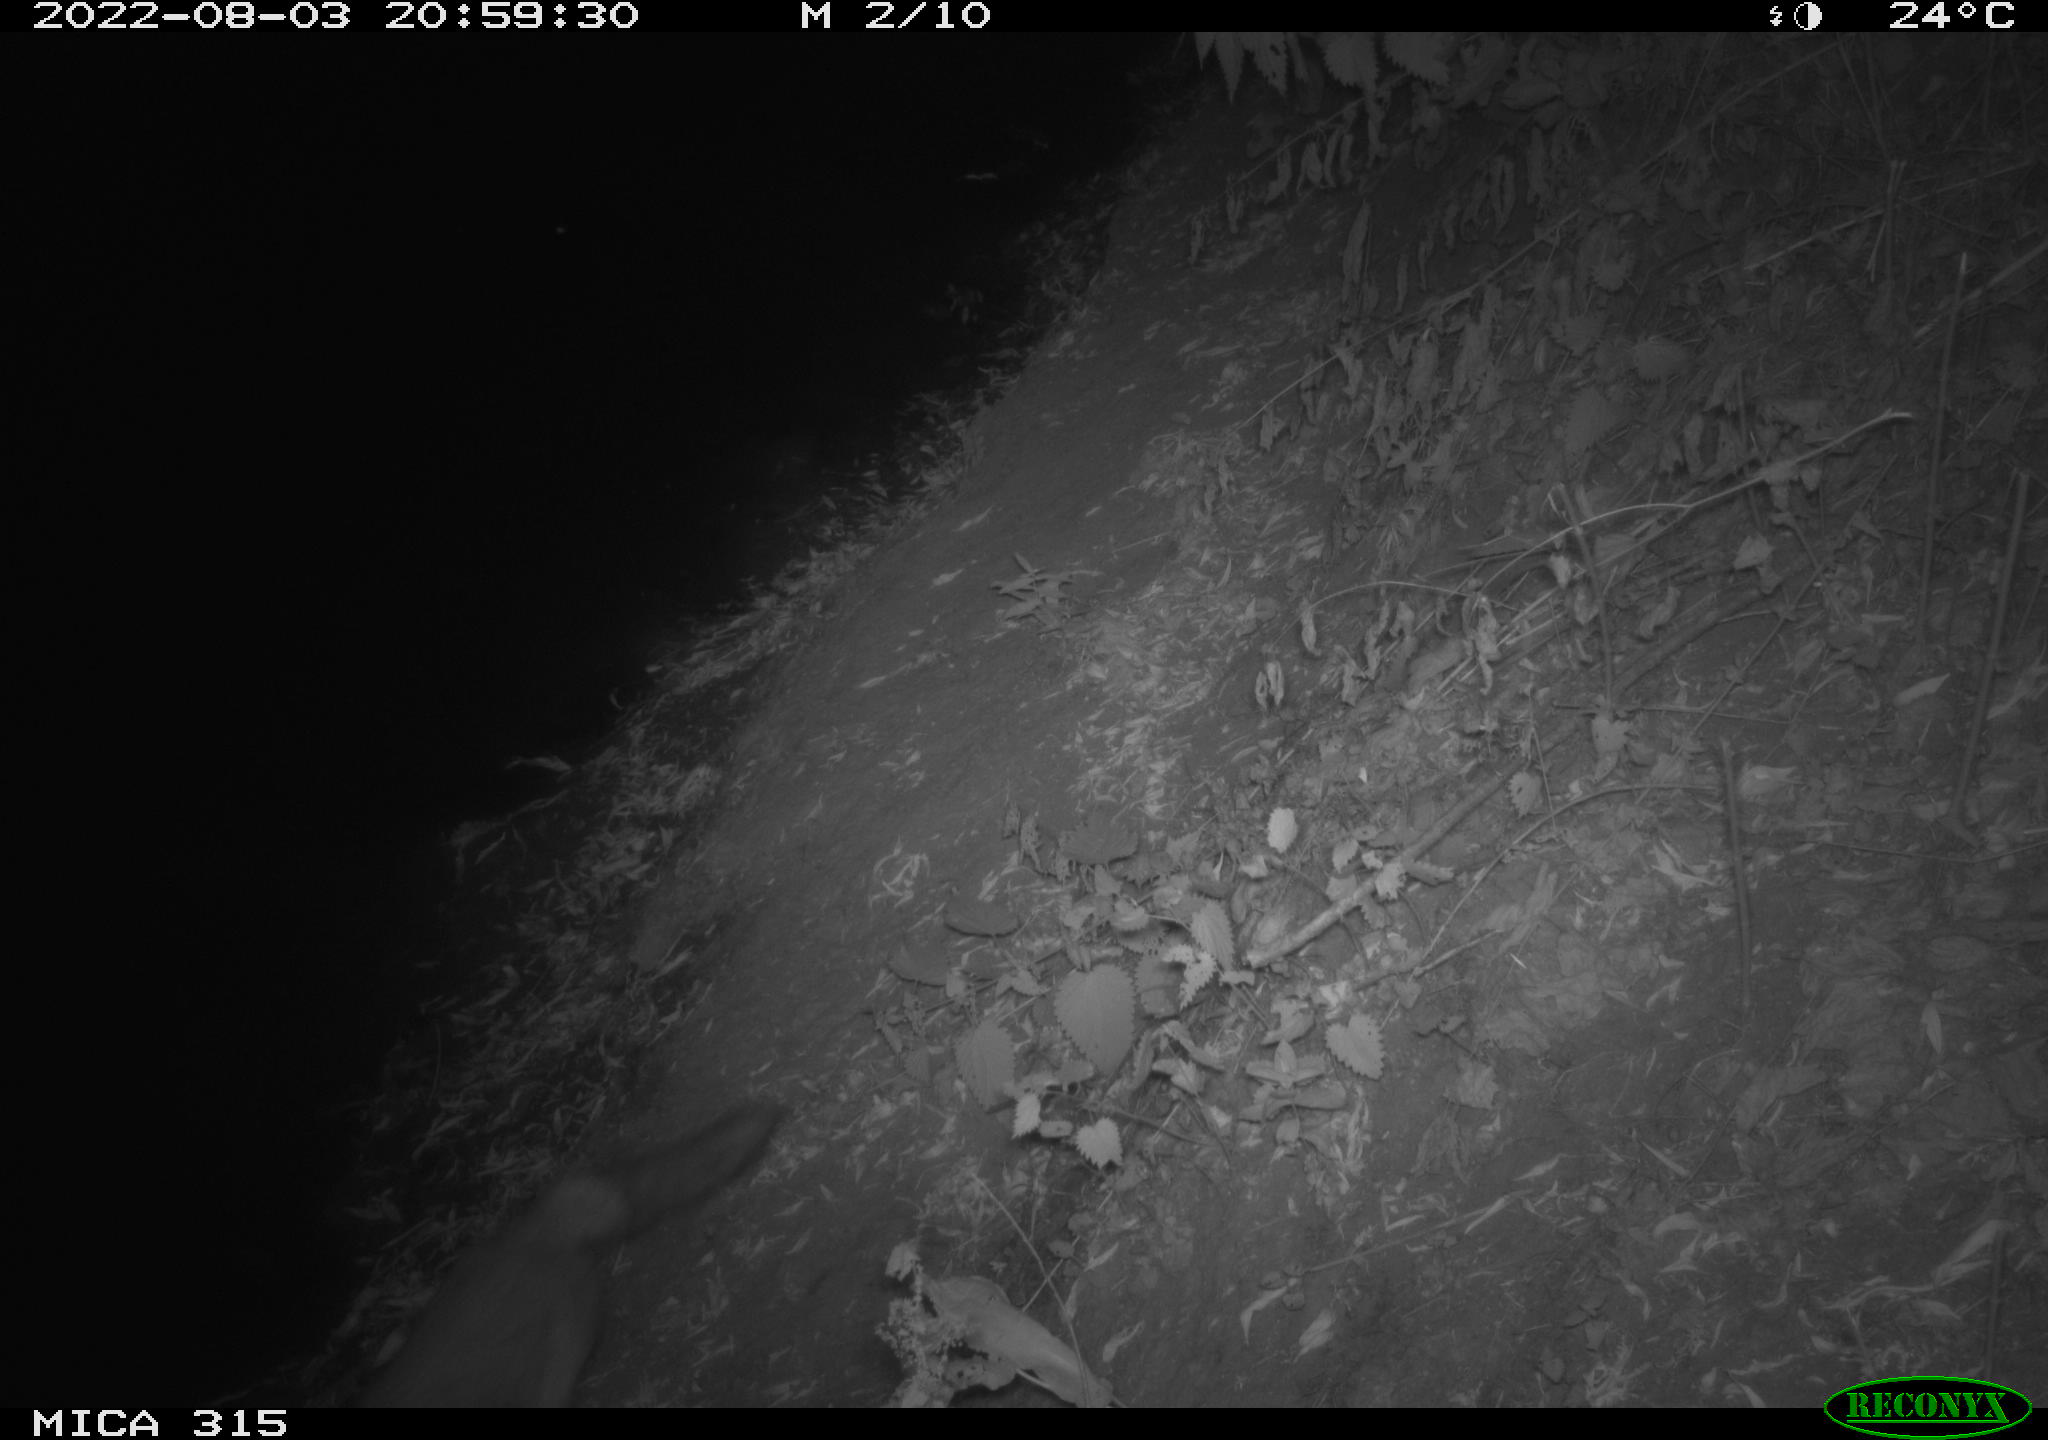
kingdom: Animalia
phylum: Chordata
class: Mammalia
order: Carnivora
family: Canidae
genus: Vulpes
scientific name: Vulpes vulpes
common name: Red fox
